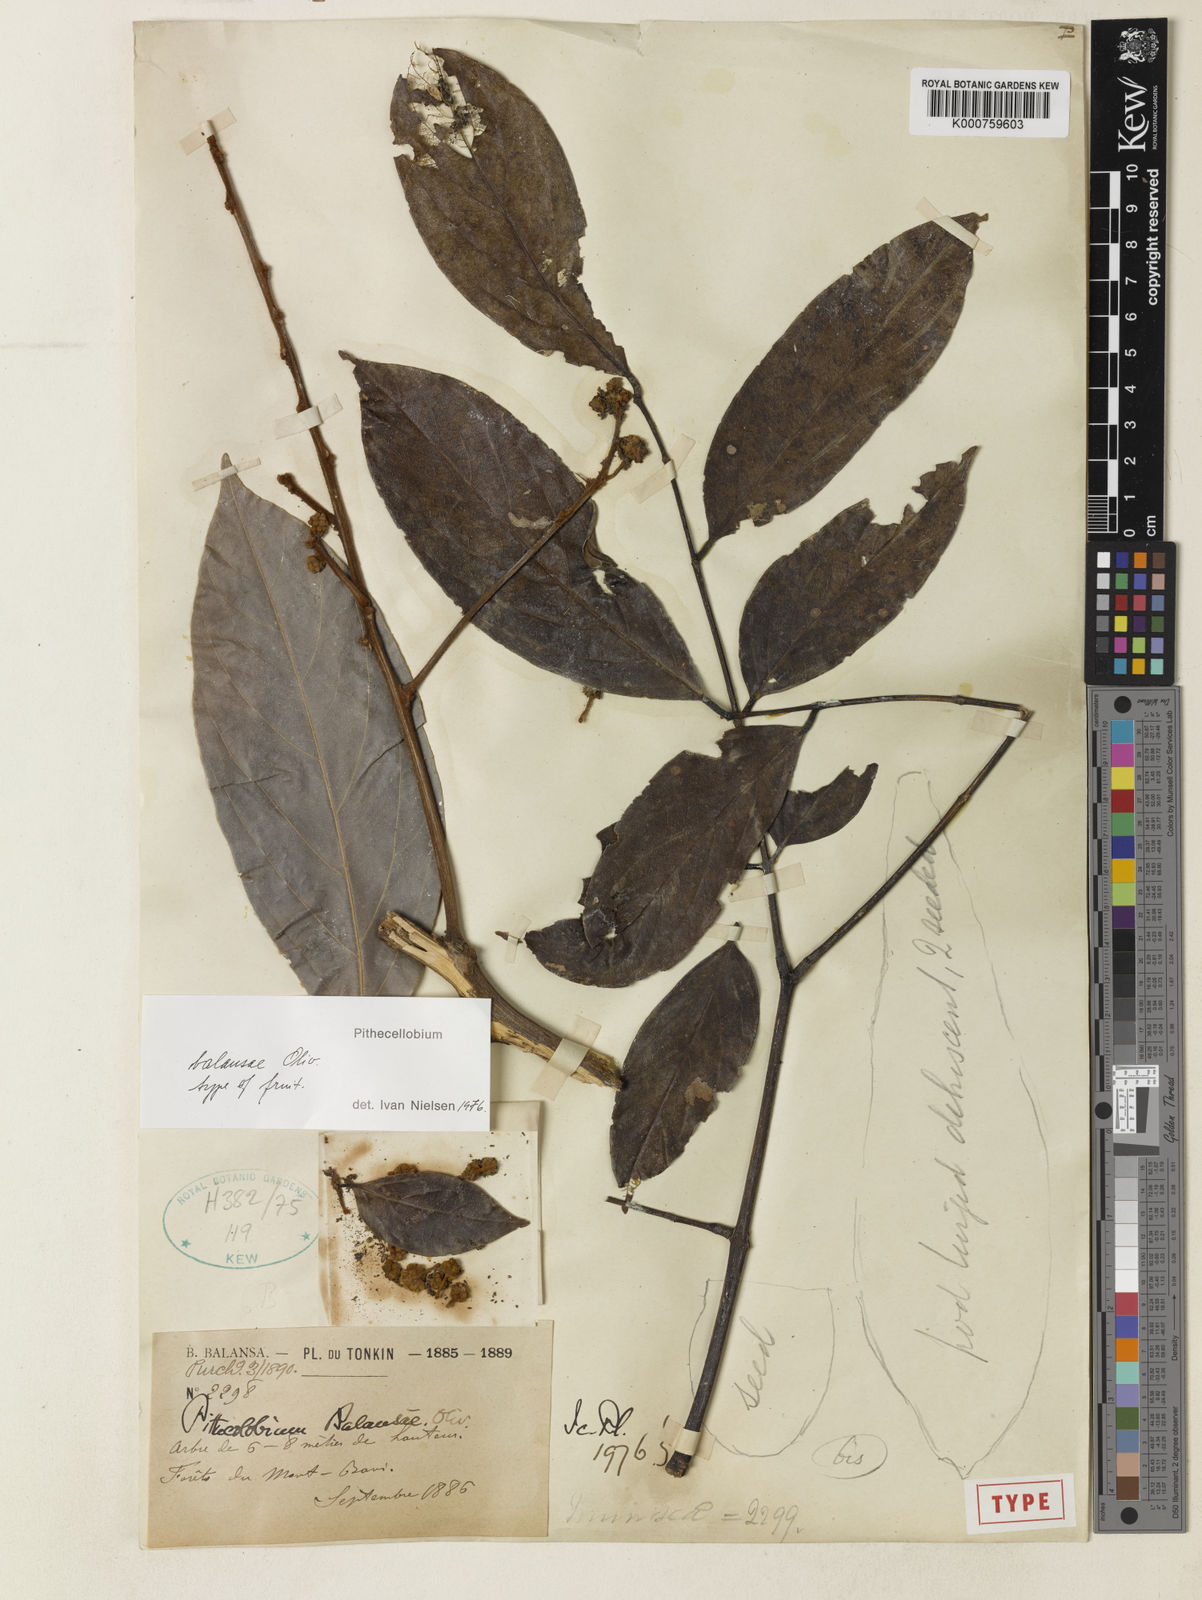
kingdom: Plantae
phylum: Tracheophyta
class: Magnoliopsida
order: Fabales
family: Fabaceae
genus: Archidendron
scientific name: Archidendron balansae
